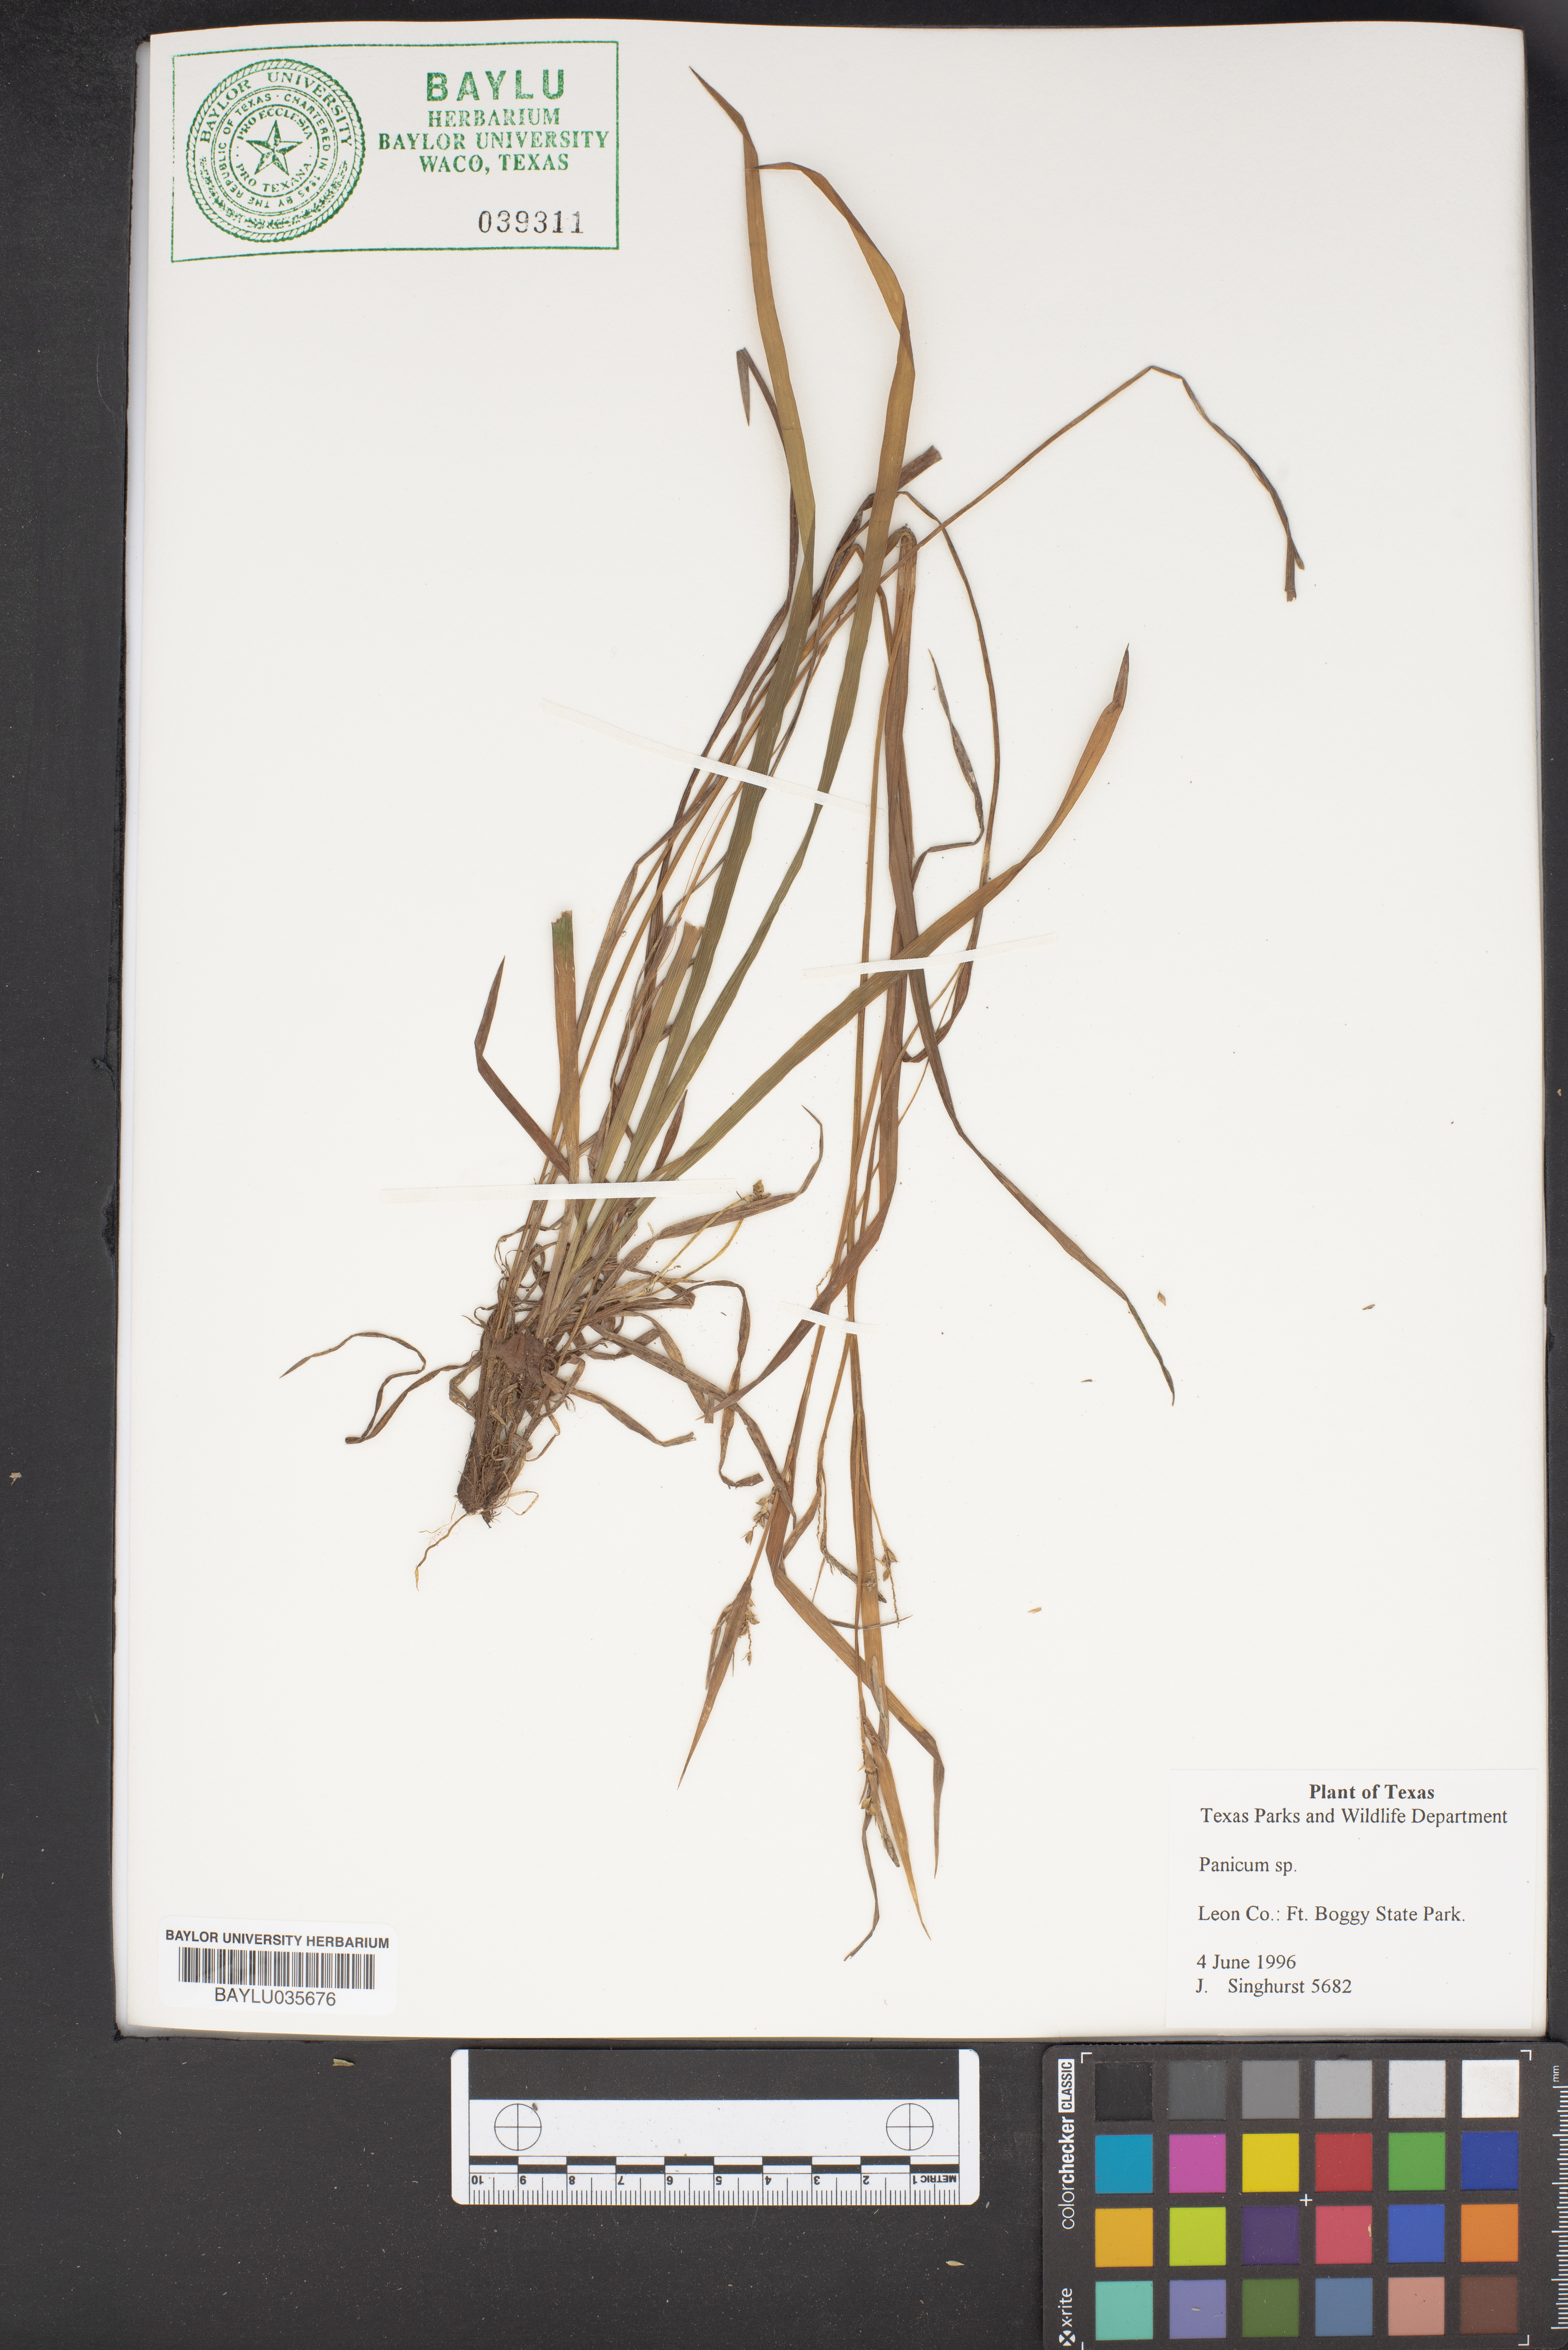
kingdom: Plantae
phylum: Tracheophyta
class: Liliopsida
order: Poales
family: Poaceae
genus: Panicum
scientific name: Panicum
